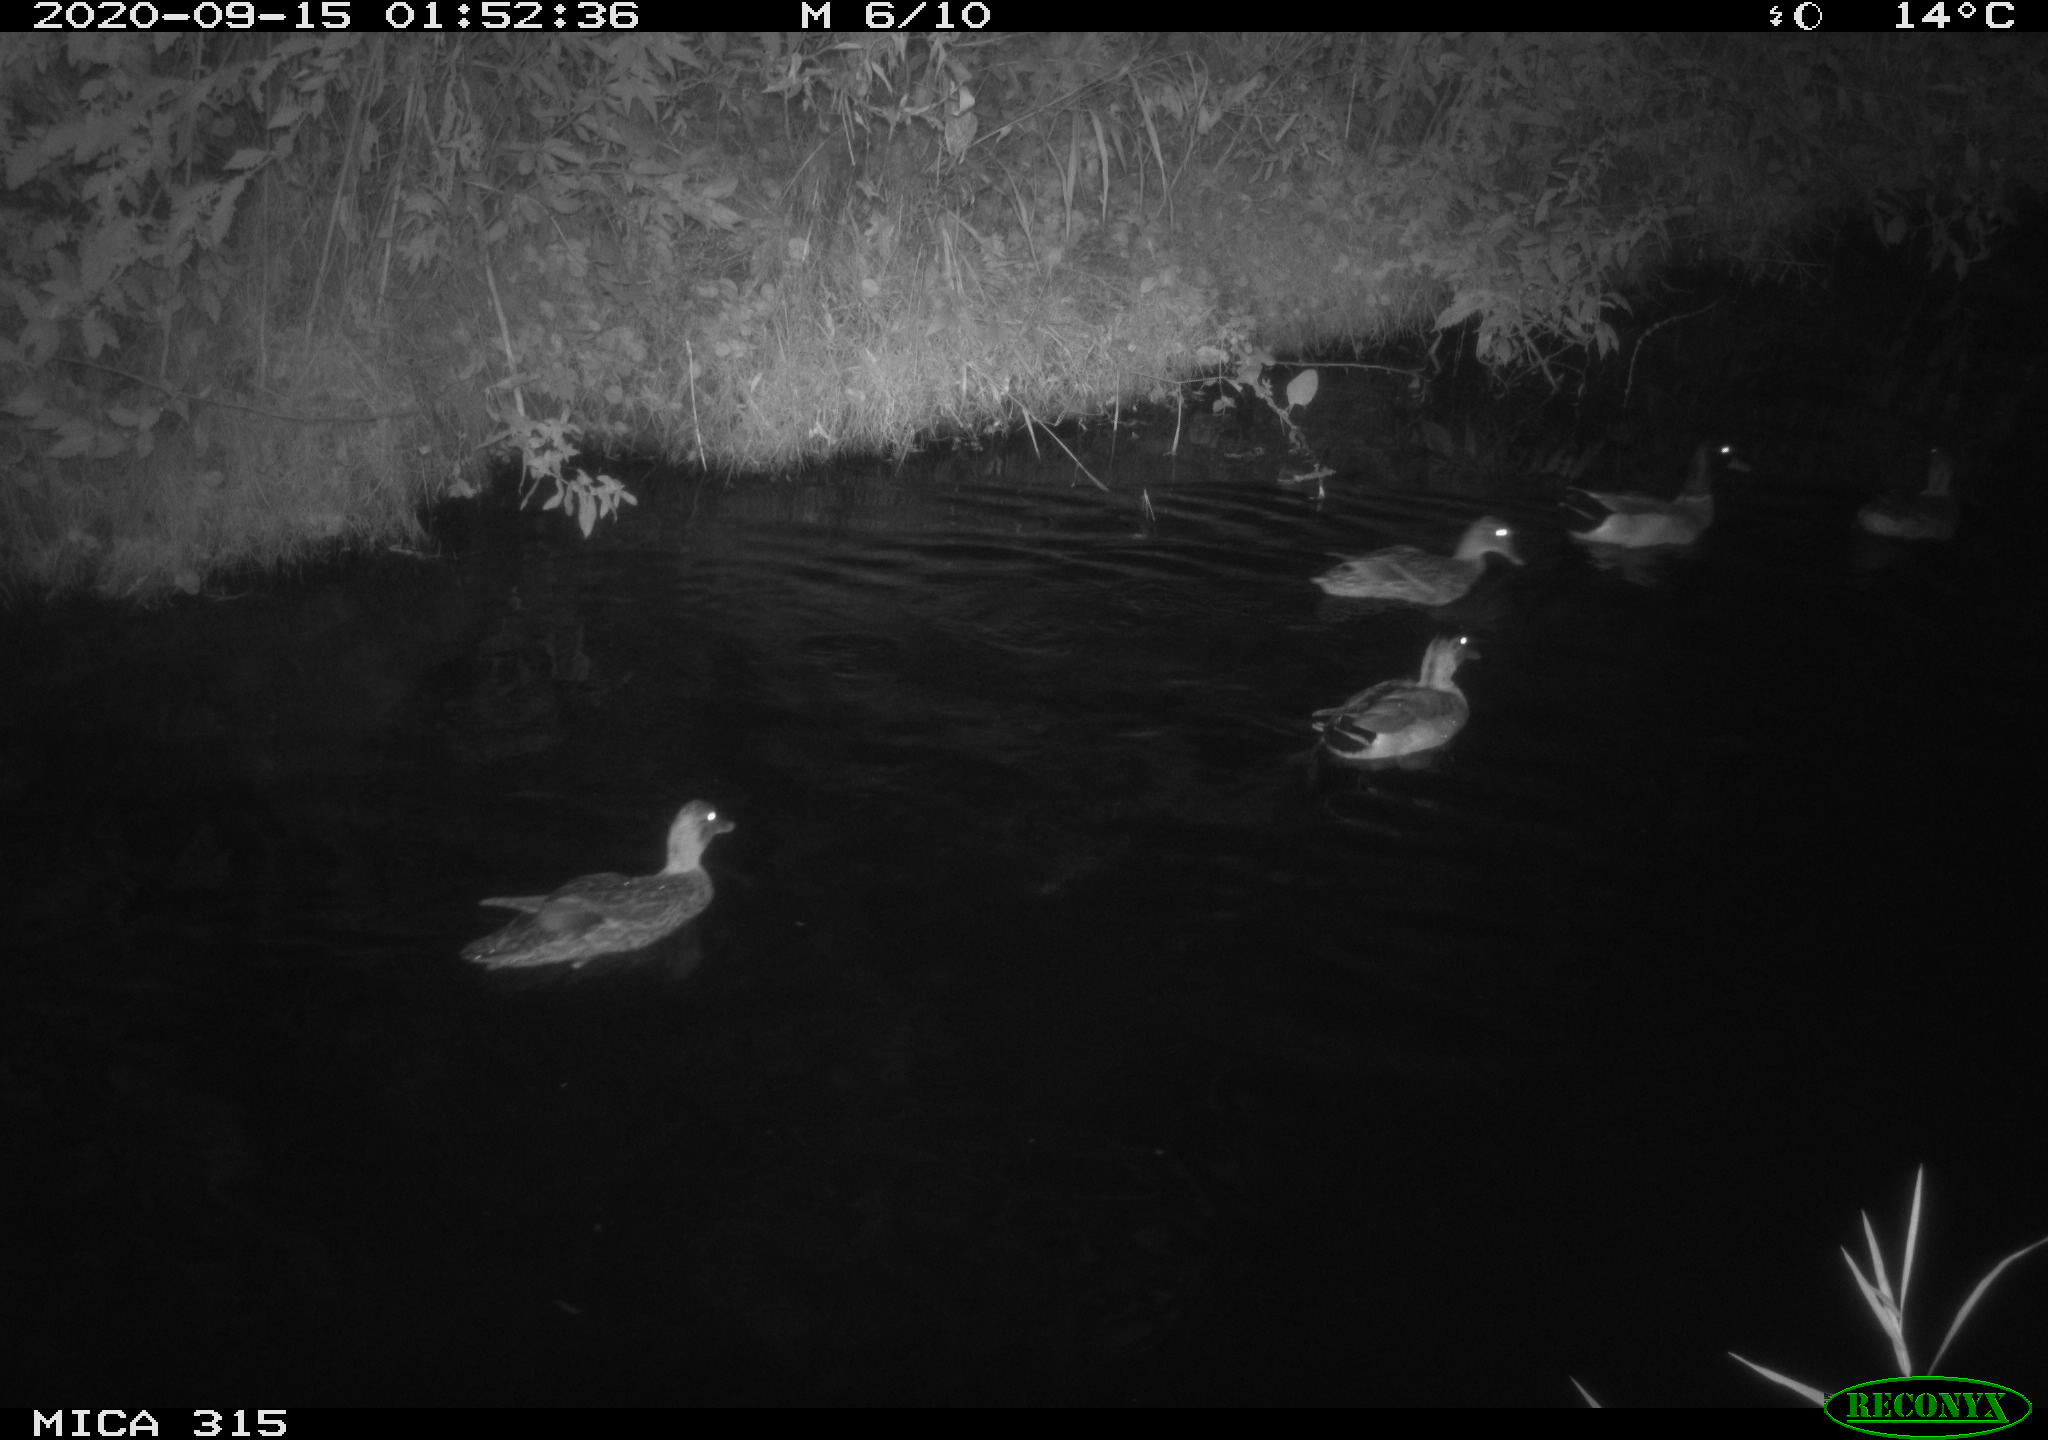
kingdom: Animalia
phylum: Chordata
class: Aves
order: Anseriformes
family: Anatidae
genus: Anas
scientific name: Anas platyrhynchos
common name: Mallard
